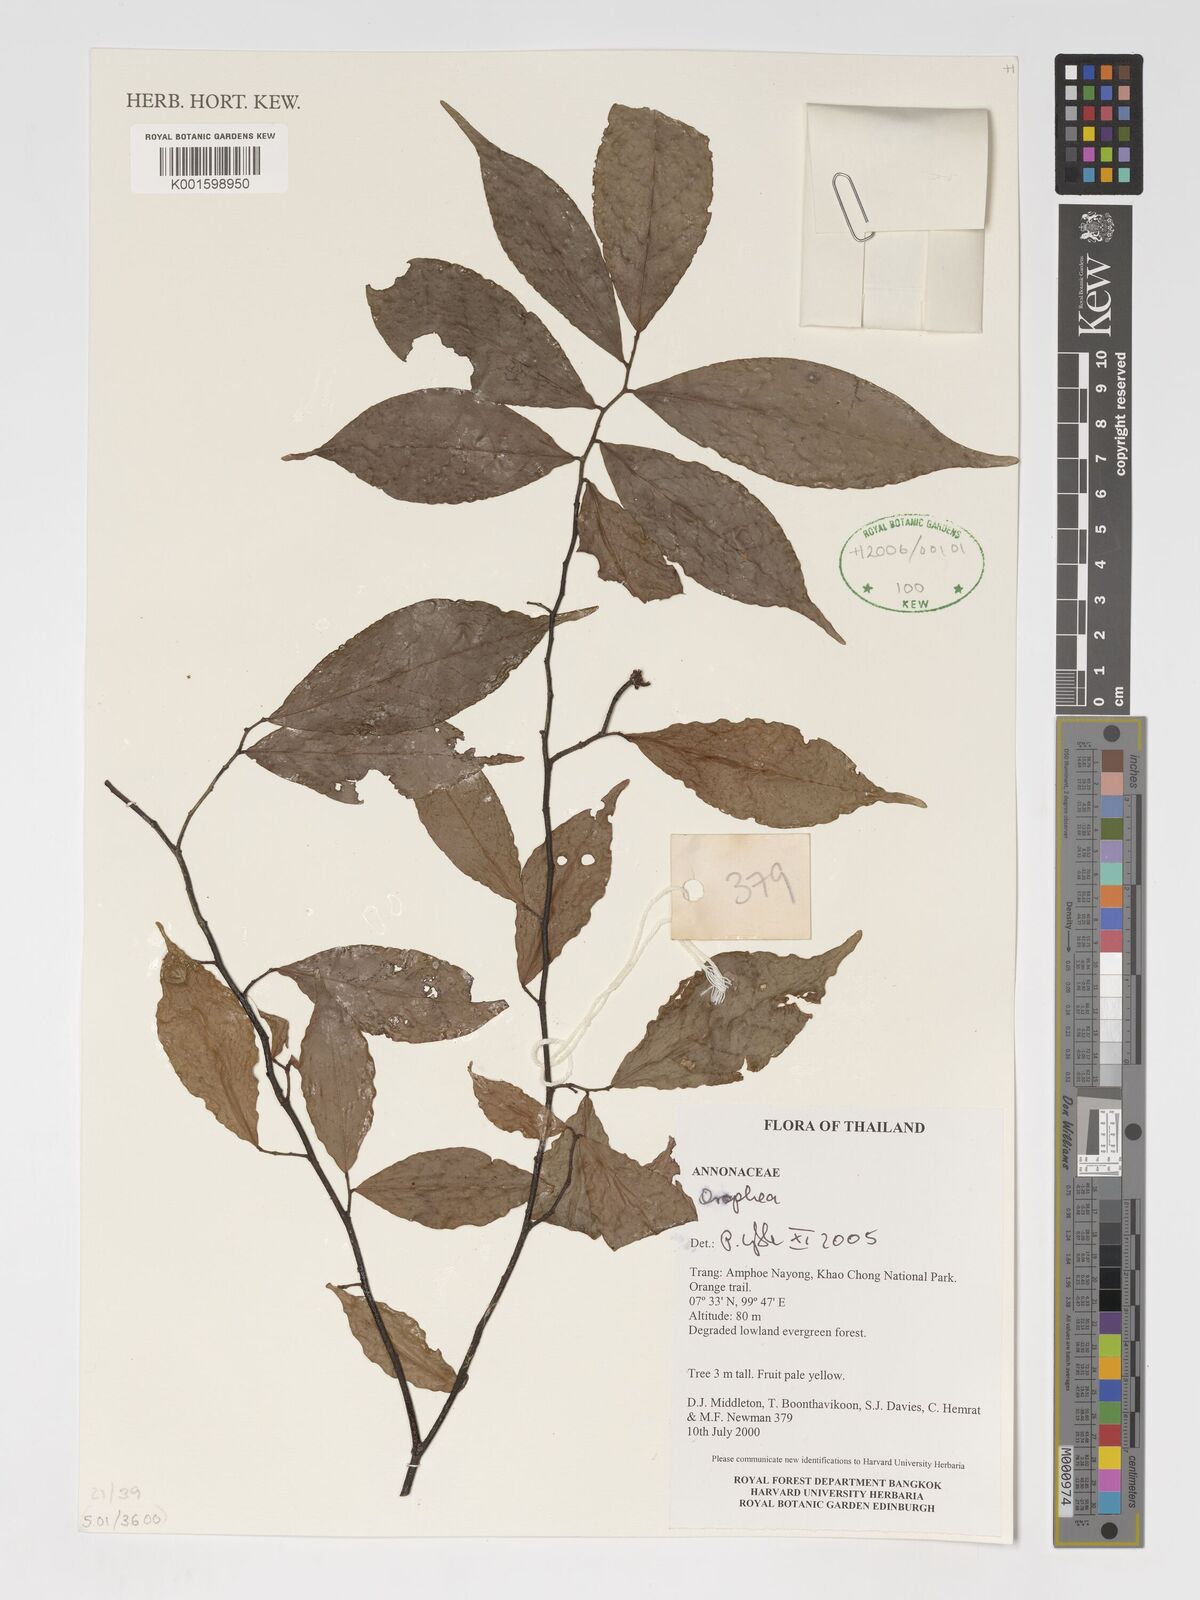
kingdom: Plantae
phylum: Tracheophyta
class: Magnoliopsida
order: Magnoliales
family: Annonaceae
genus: Orophea
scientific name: Orophea
